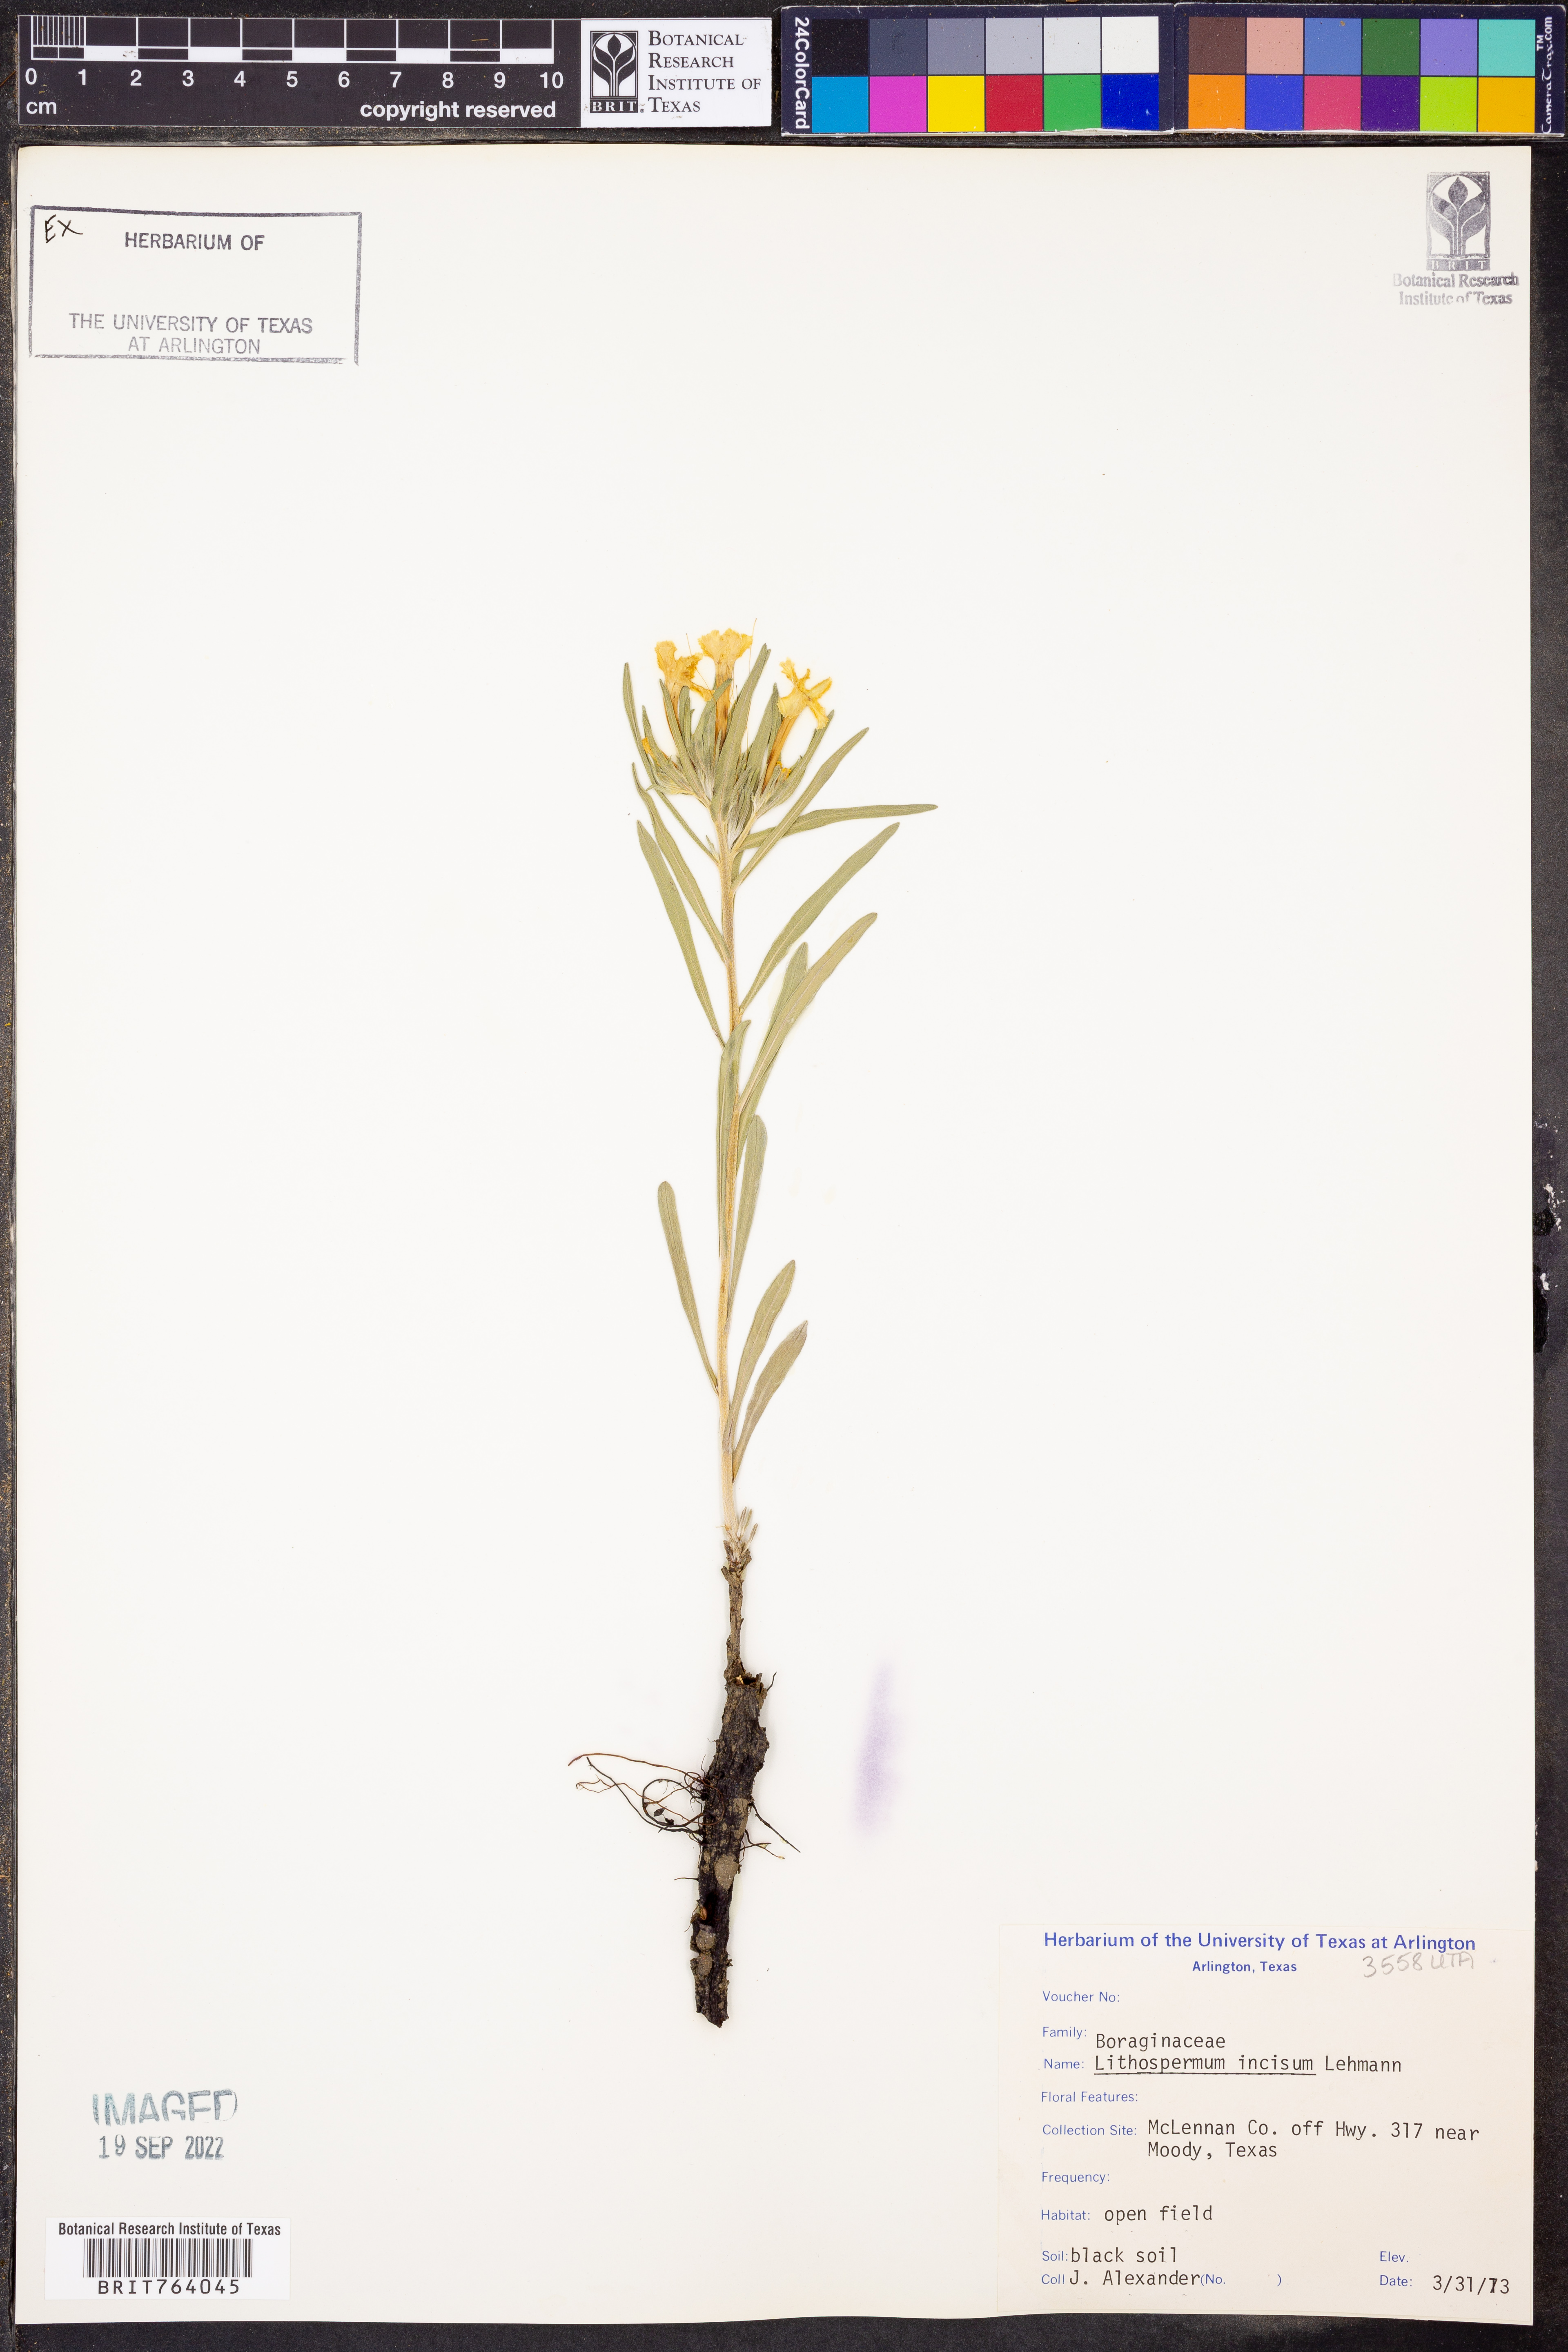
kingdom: Plantae
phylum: Tracheophyta
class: Magnoliopsida
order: Boraginales
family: Boraginaceae
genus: Lithospermum
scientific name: Lithospermum incisum
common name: Fringed gromwell
